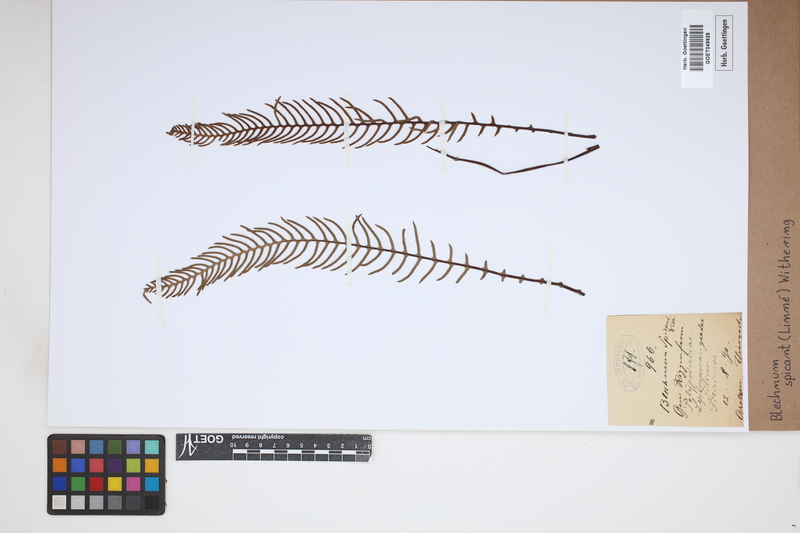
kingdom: Plantae
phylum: Tracheophyta
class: Polypodiopsida
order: Polypodiales
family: Blechnaceae
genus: Struthiopteris
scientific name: Struthiopteris spicant
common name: Deer fern
